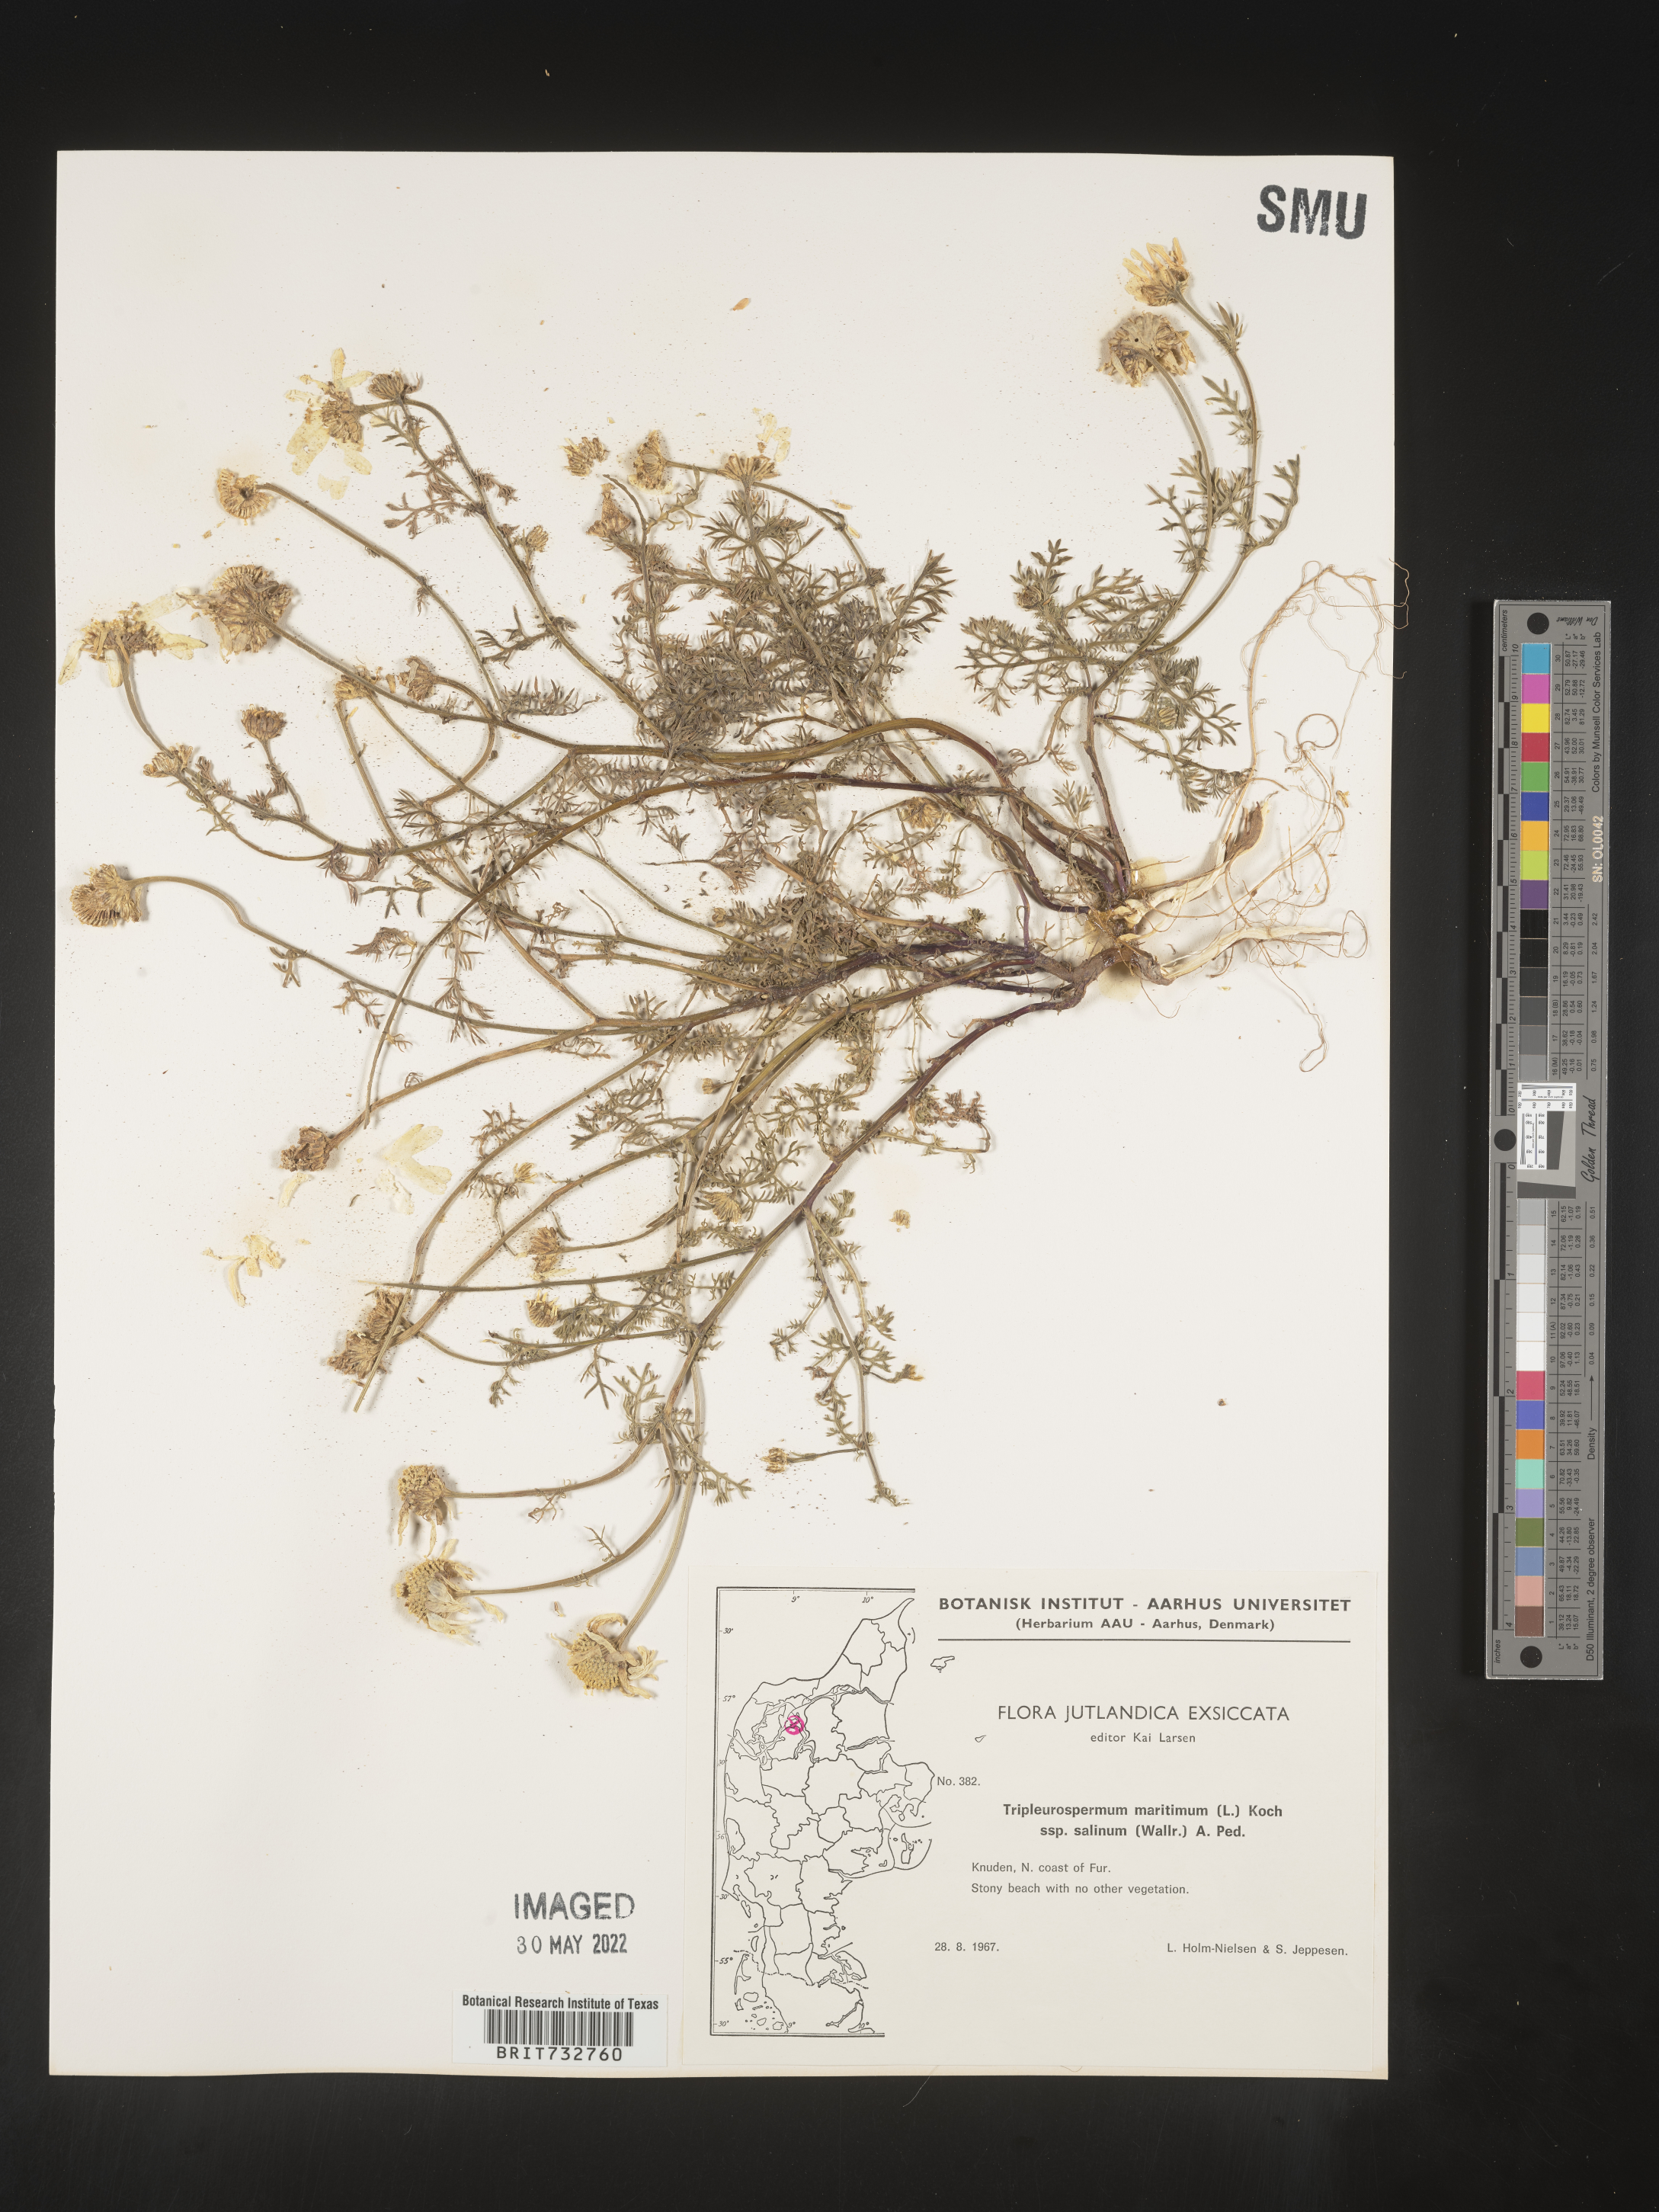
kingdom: Plantae
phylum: Tracheophyta
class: Magnoliopsida
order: Asterales
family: Asteraceae
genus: Matricaria
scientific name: Matricaria
